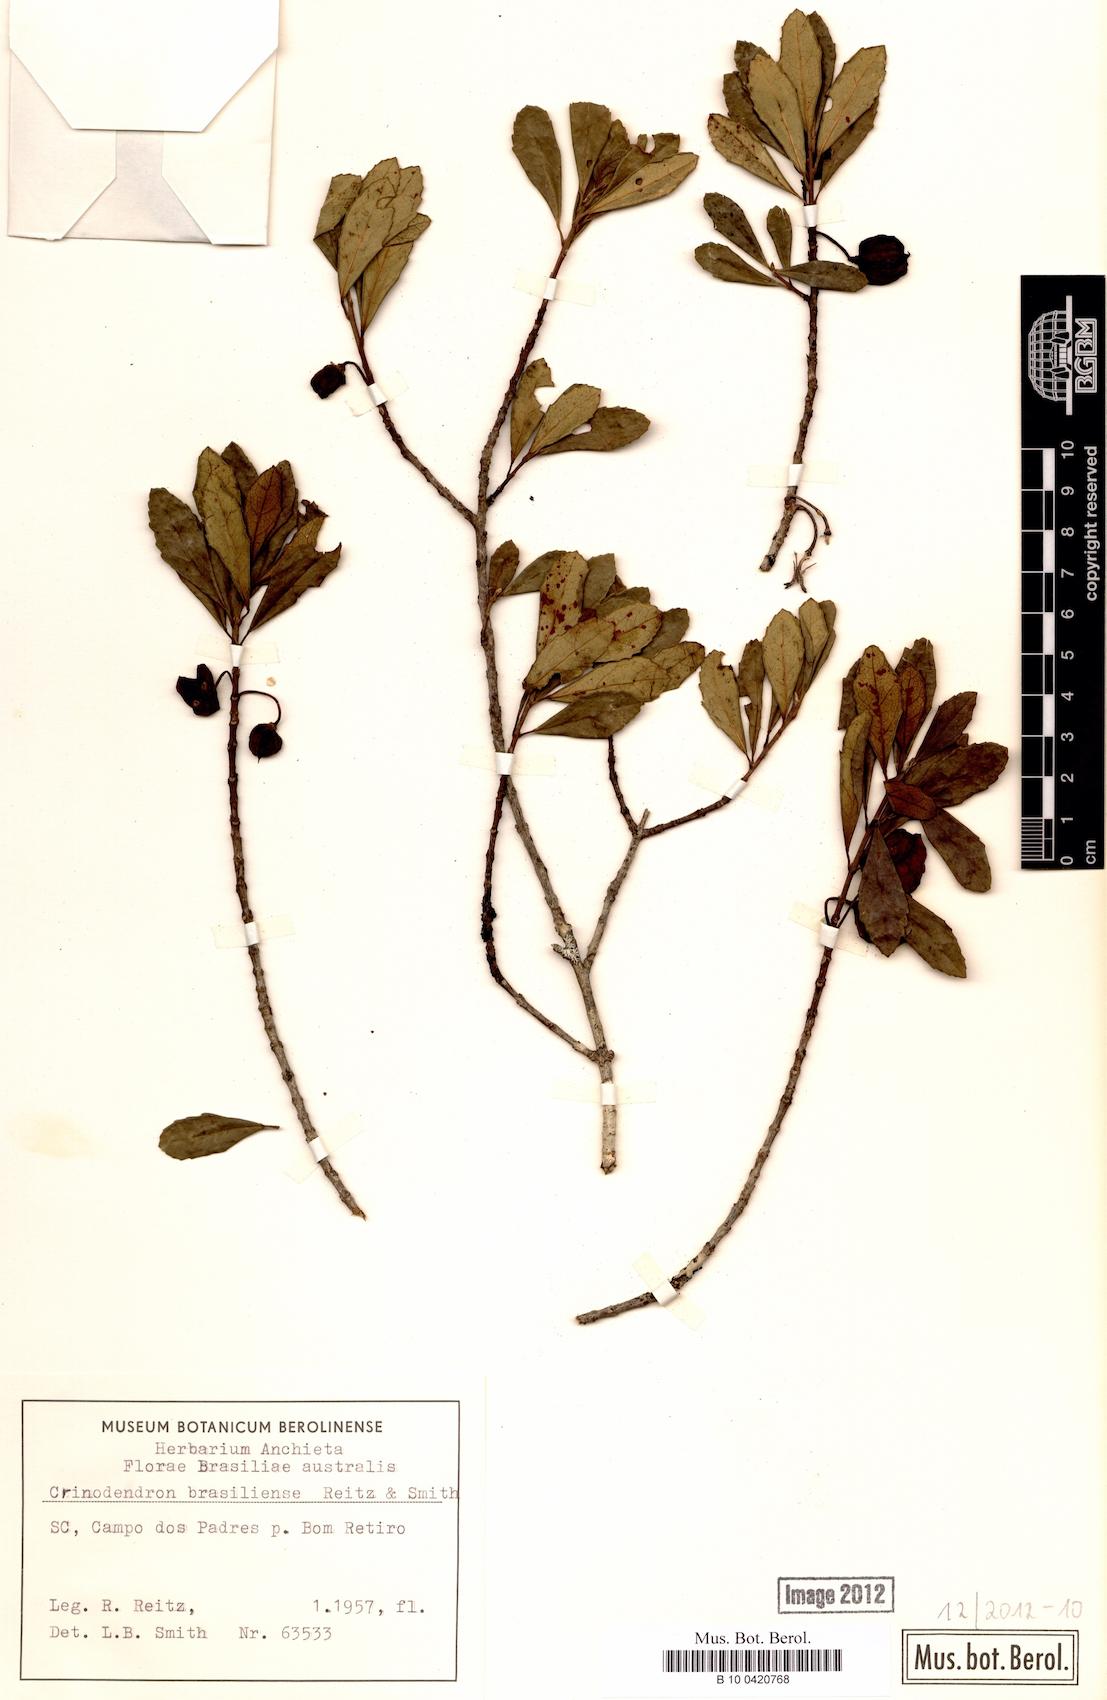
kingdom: Plantae
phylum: Tracheophyta
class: Magnoliopsida
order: Oxalidales
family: Elaeocarpaceae
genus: Crinodendron
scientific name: Crinodendron brasiliense
